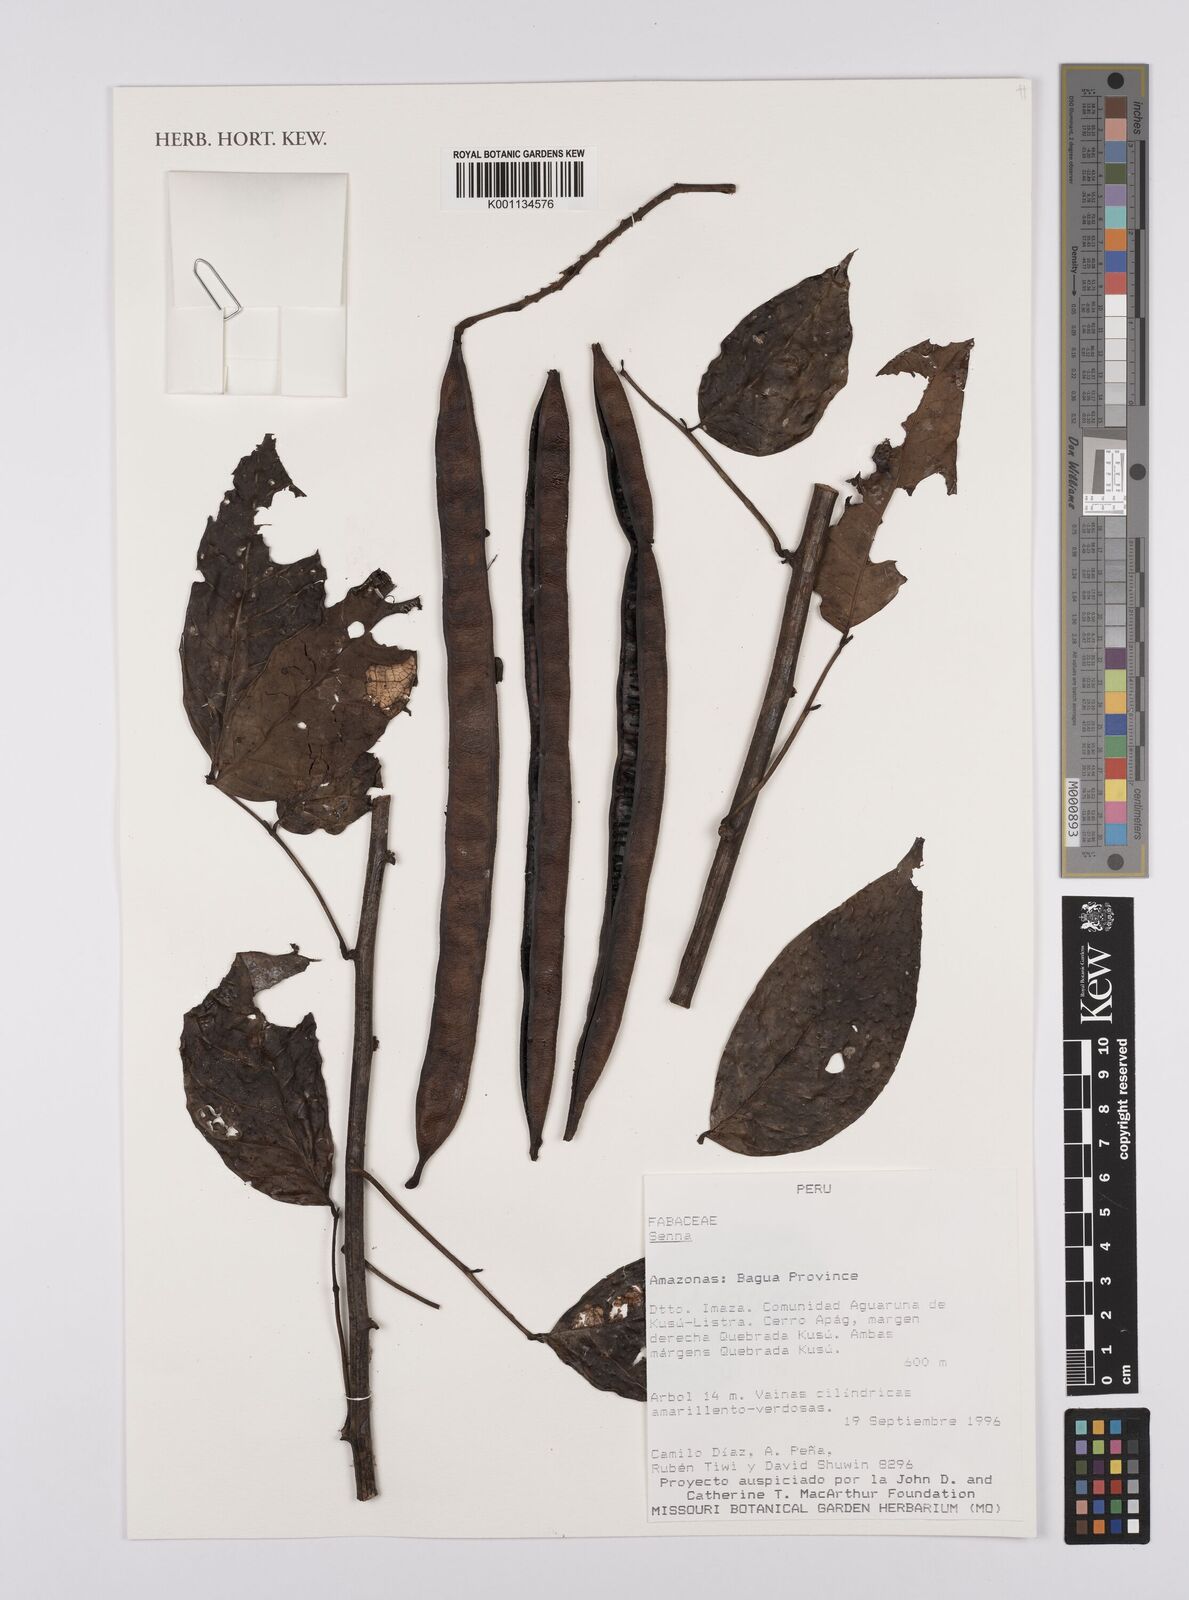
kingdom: Plantae
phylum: Tracheophyta
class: Magnoliopsida
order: Fabales
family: Fabaceae
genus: Senna
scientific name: Senna
